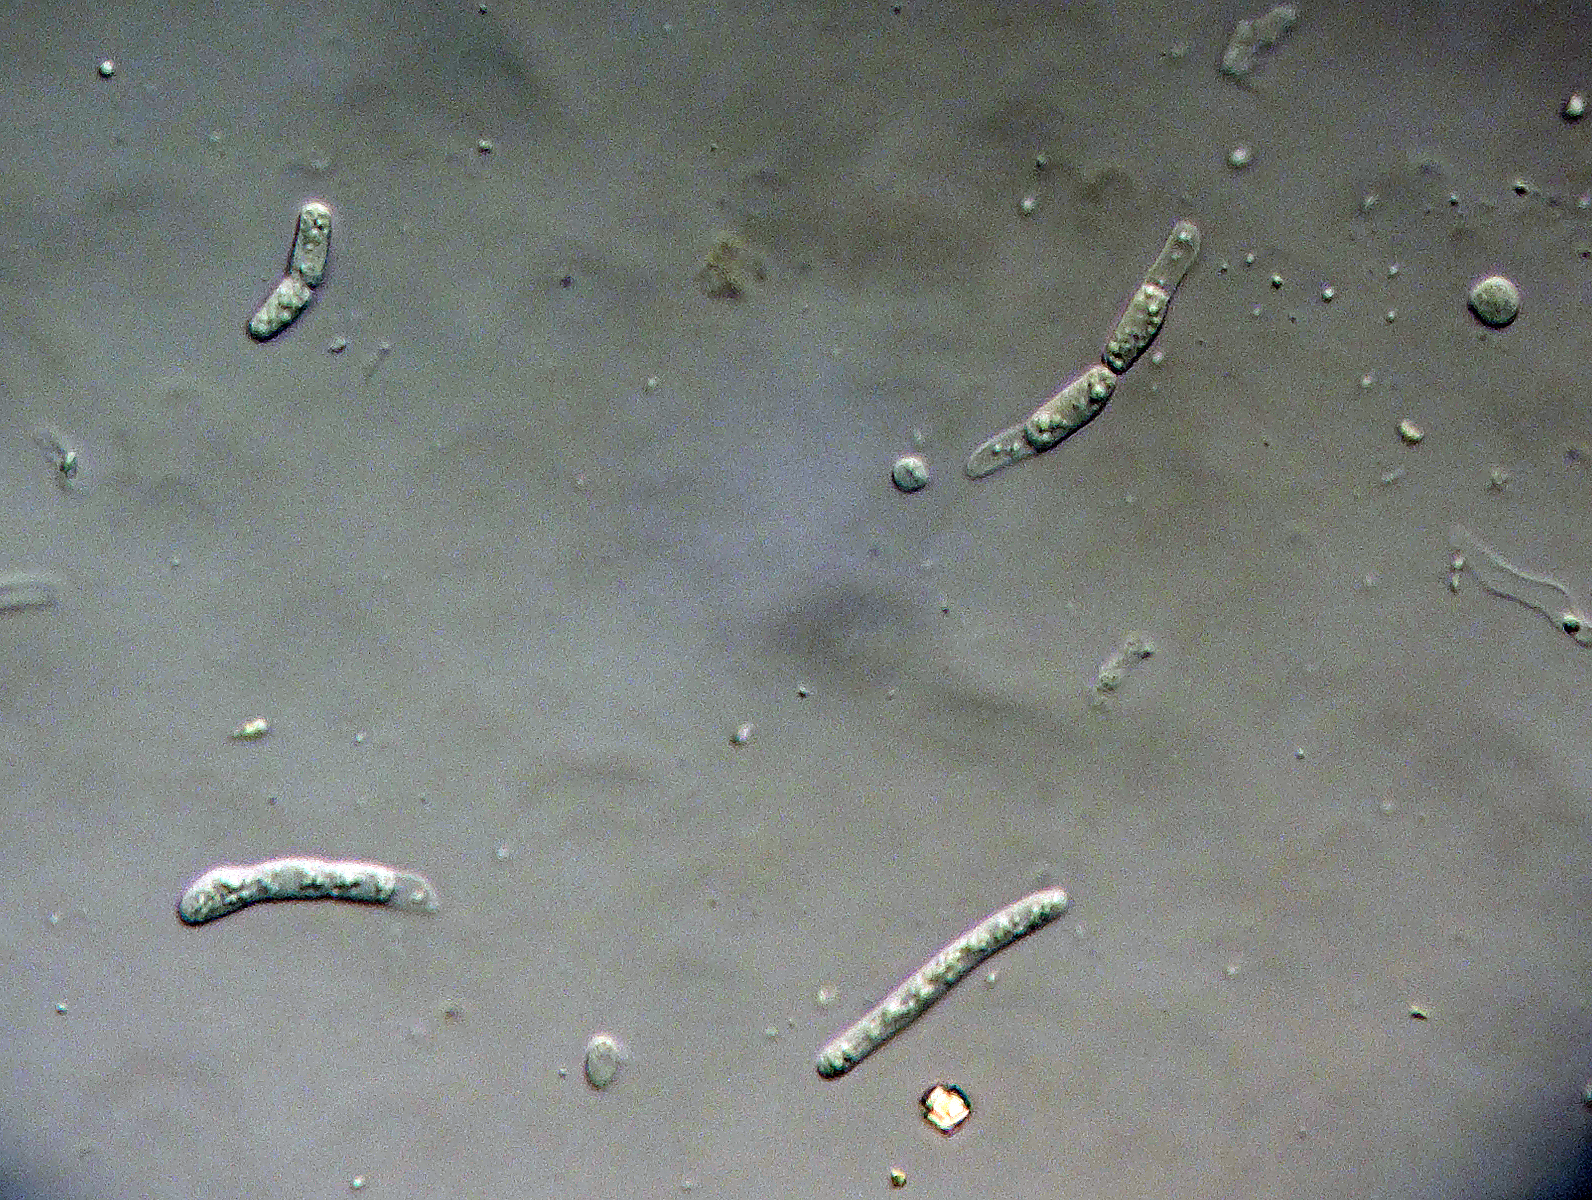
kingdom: Fungi
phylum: Ascomycota
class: Dothideomycetes
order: Pleosporales
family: Phaeosphaeriaceae
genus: Paraphoma
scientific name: Paraphoma convolvuli
